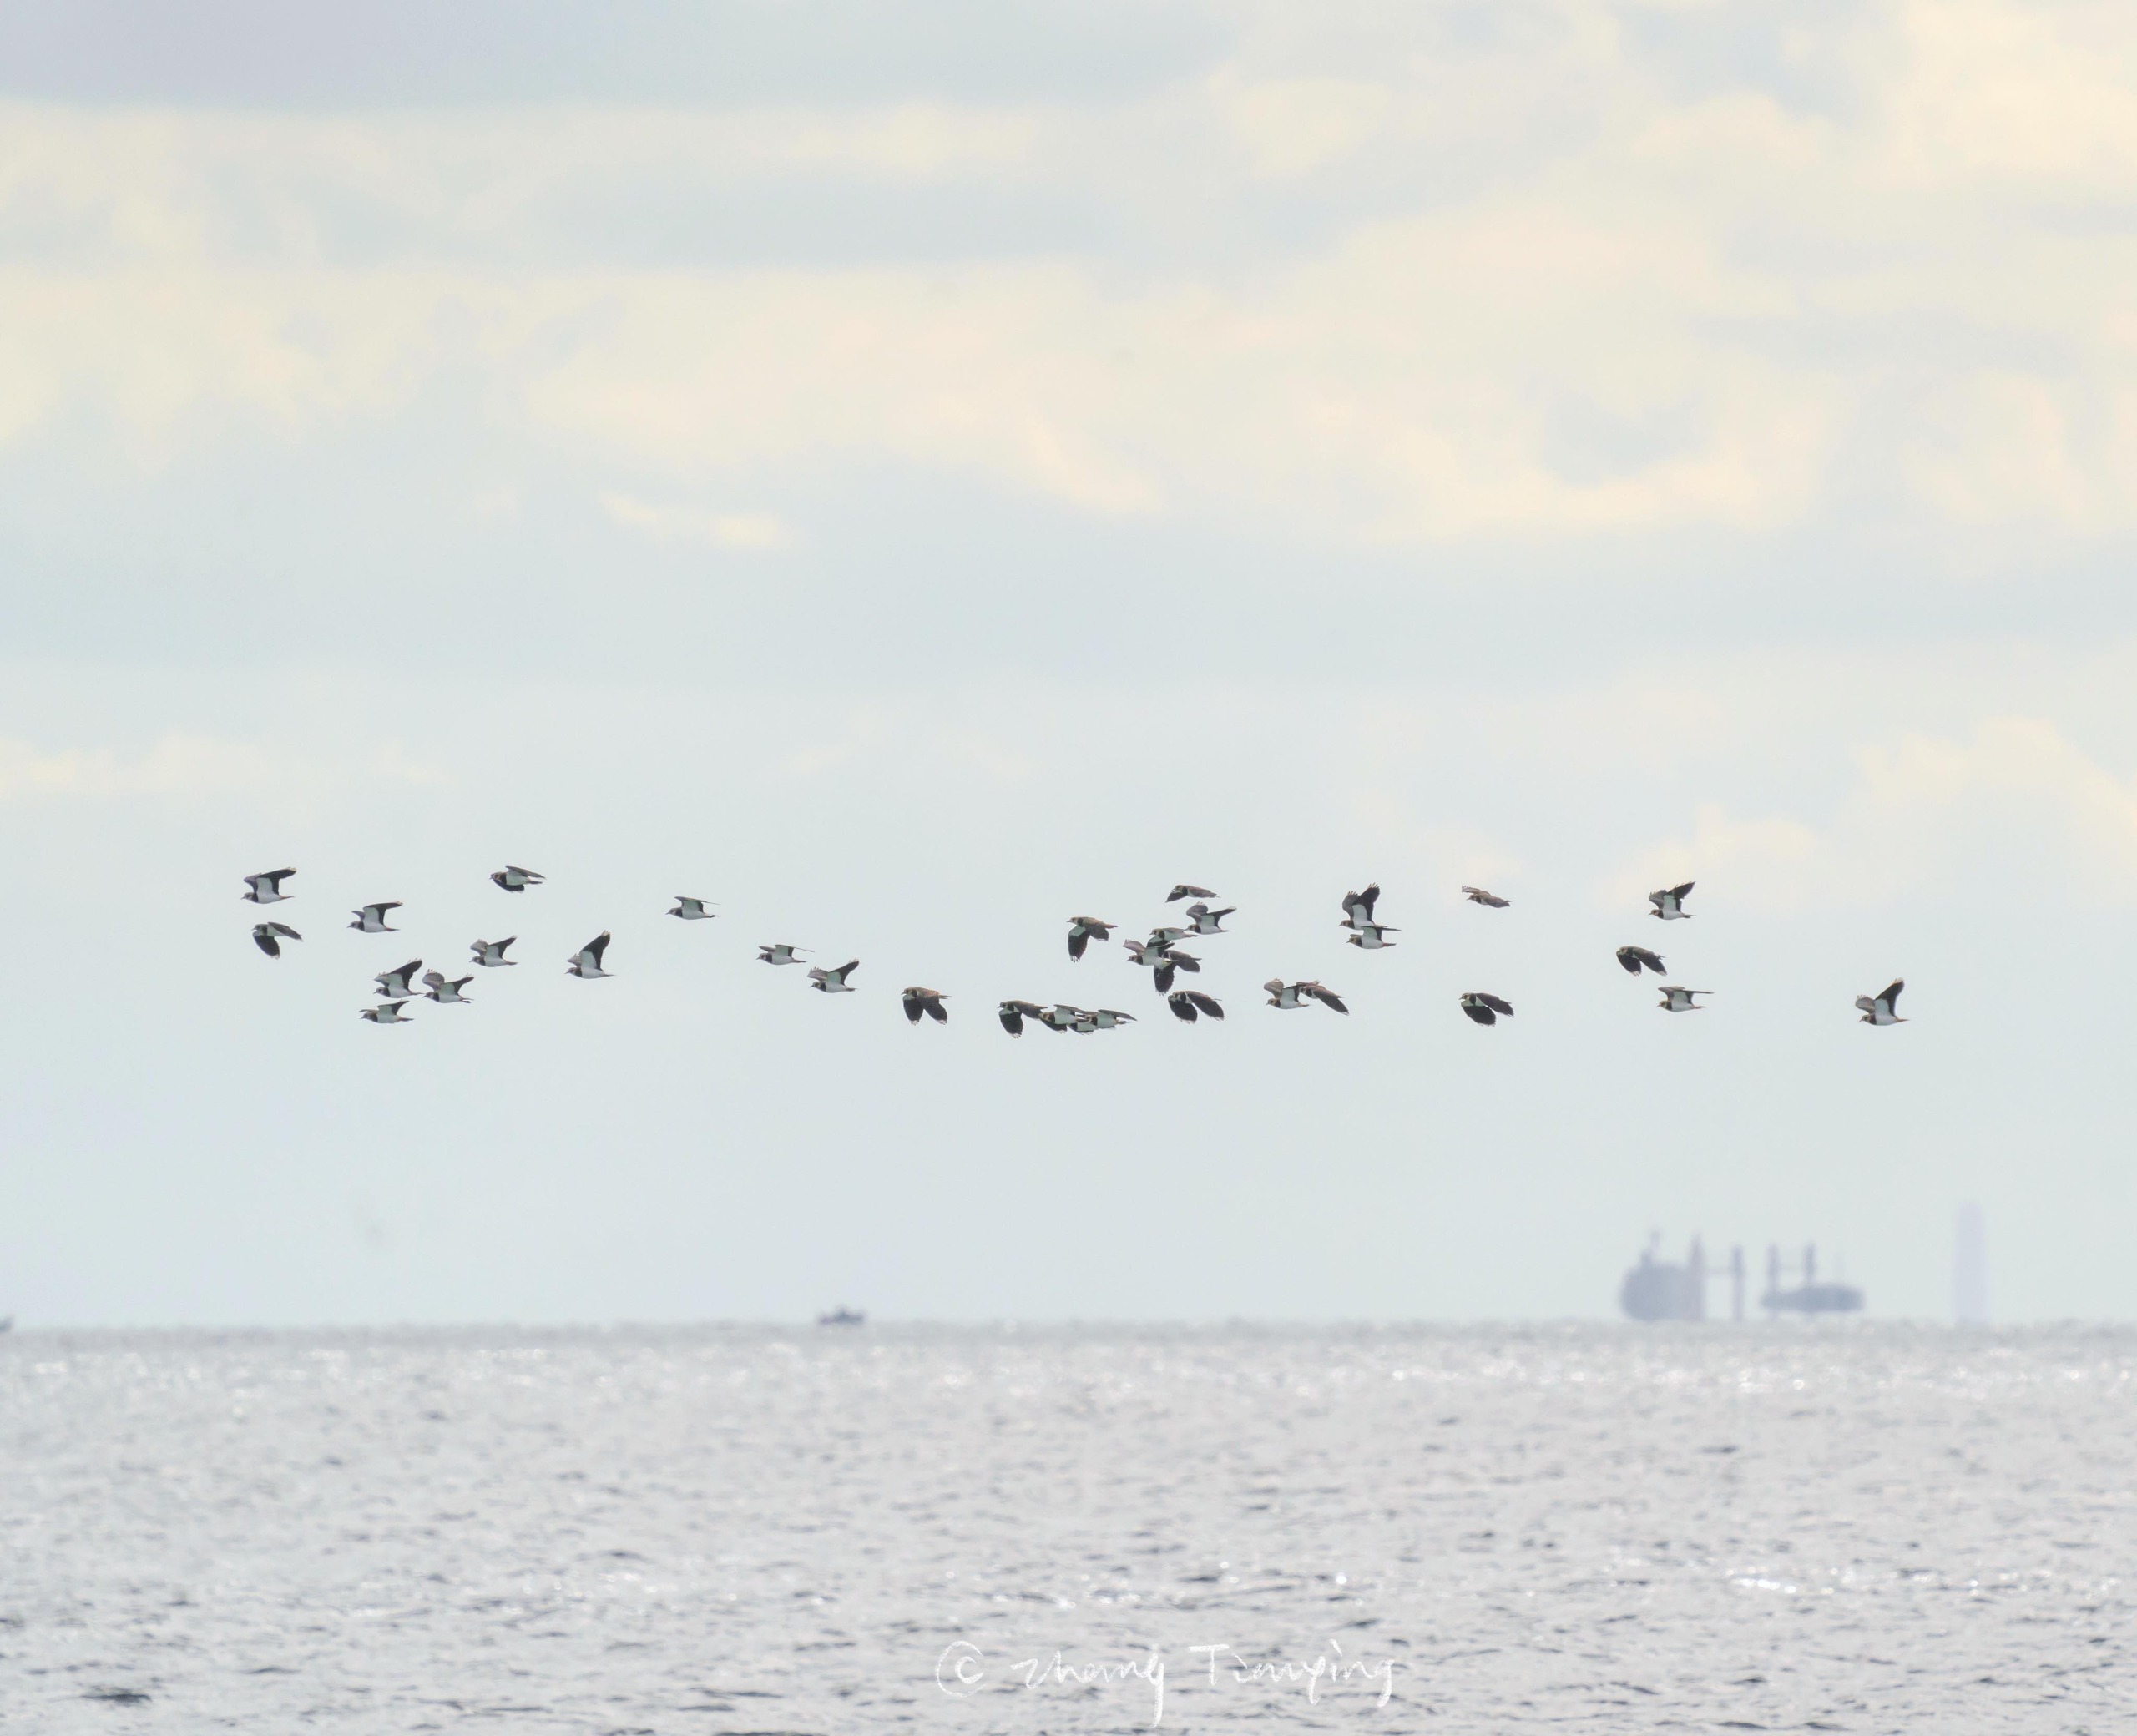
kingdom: Animalia
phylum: Chordata
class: Aves
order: Charadriiformes
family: Charadriidae
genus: Vanellus
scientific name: Vanellus vanellus
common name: Vibe
